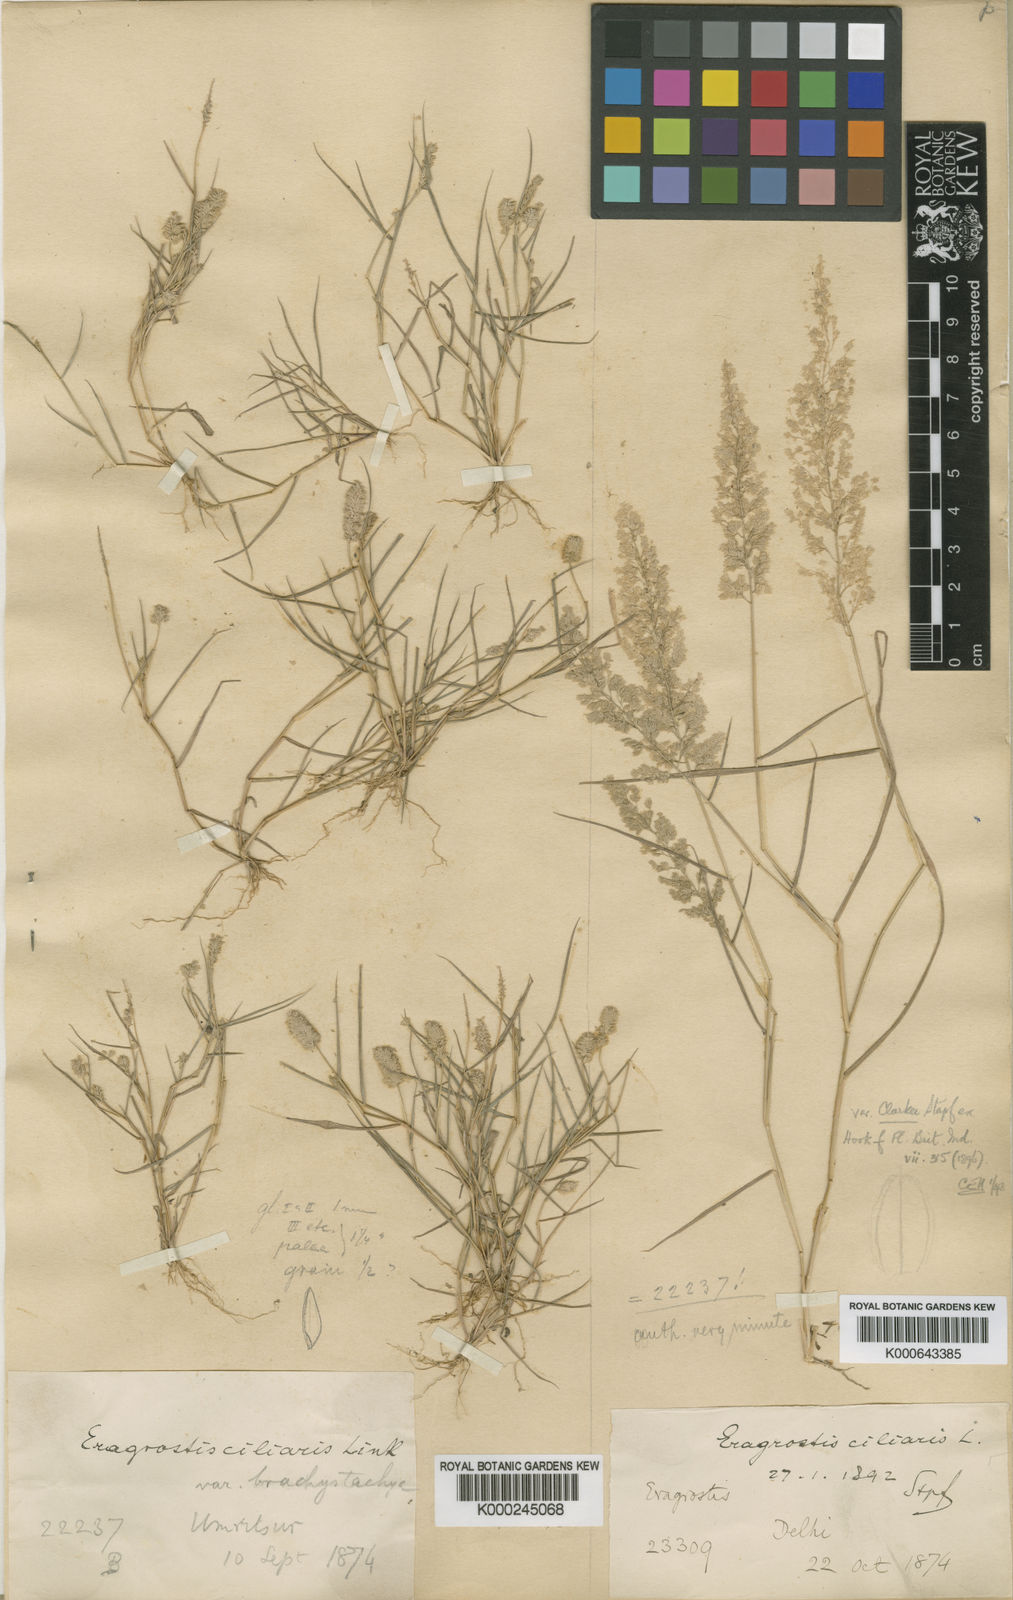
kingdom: Plantae
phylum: Tracheophyta
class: Liliopsida
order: Poales
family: Poaceae
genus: Eragrostis
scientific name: Eragrostis
